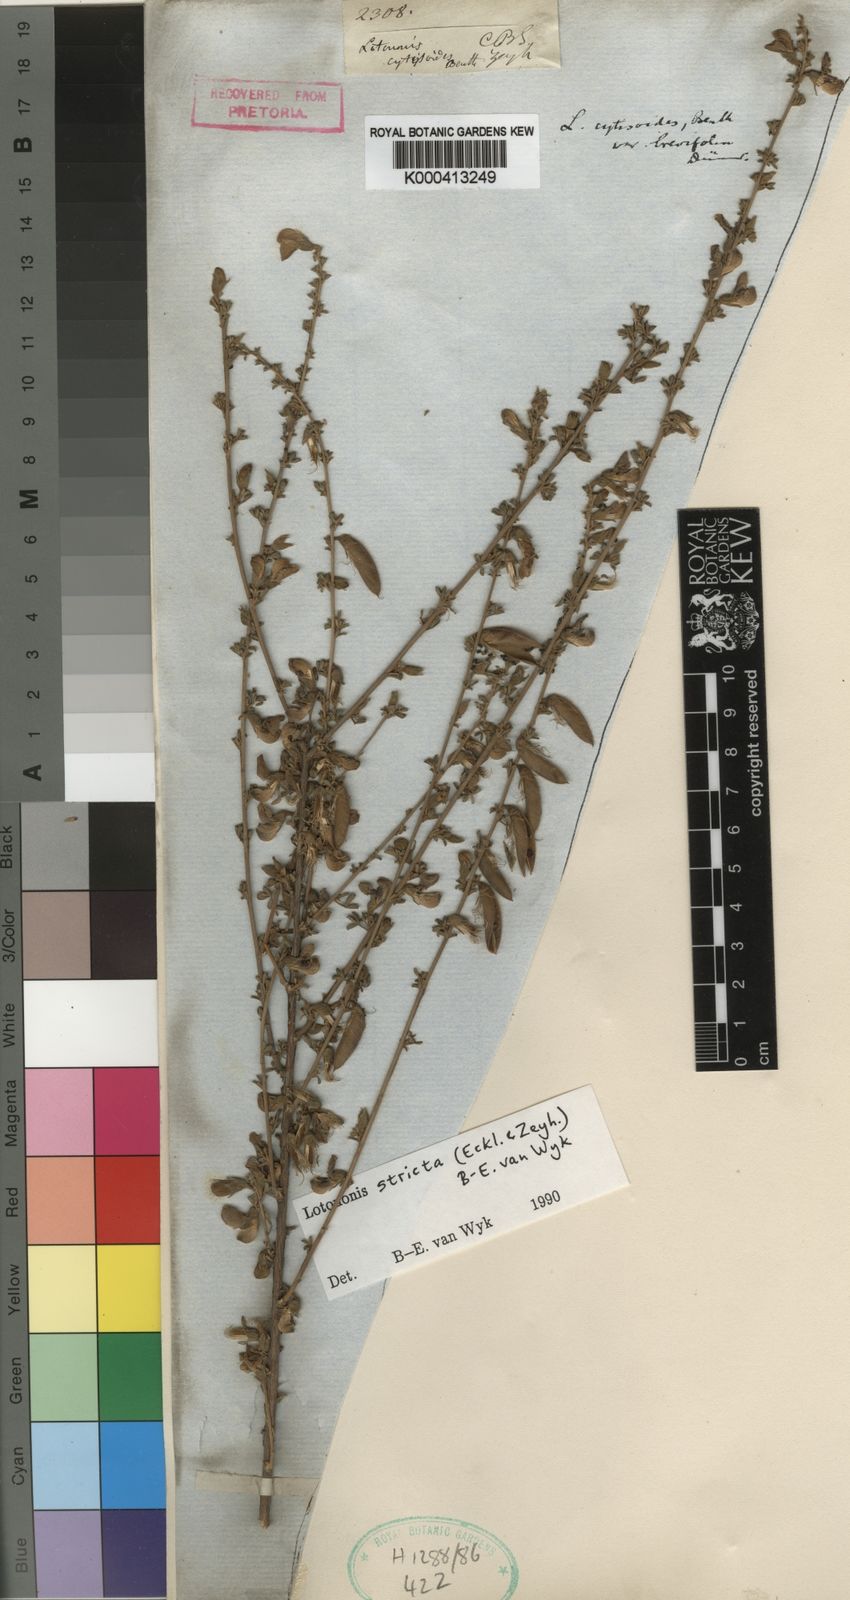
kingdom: Plantae
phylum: Tracheophyta
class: Magnoliopsida
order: Fabales
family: Fabaceae
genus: Lotononis
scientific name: Lotononis stricta
